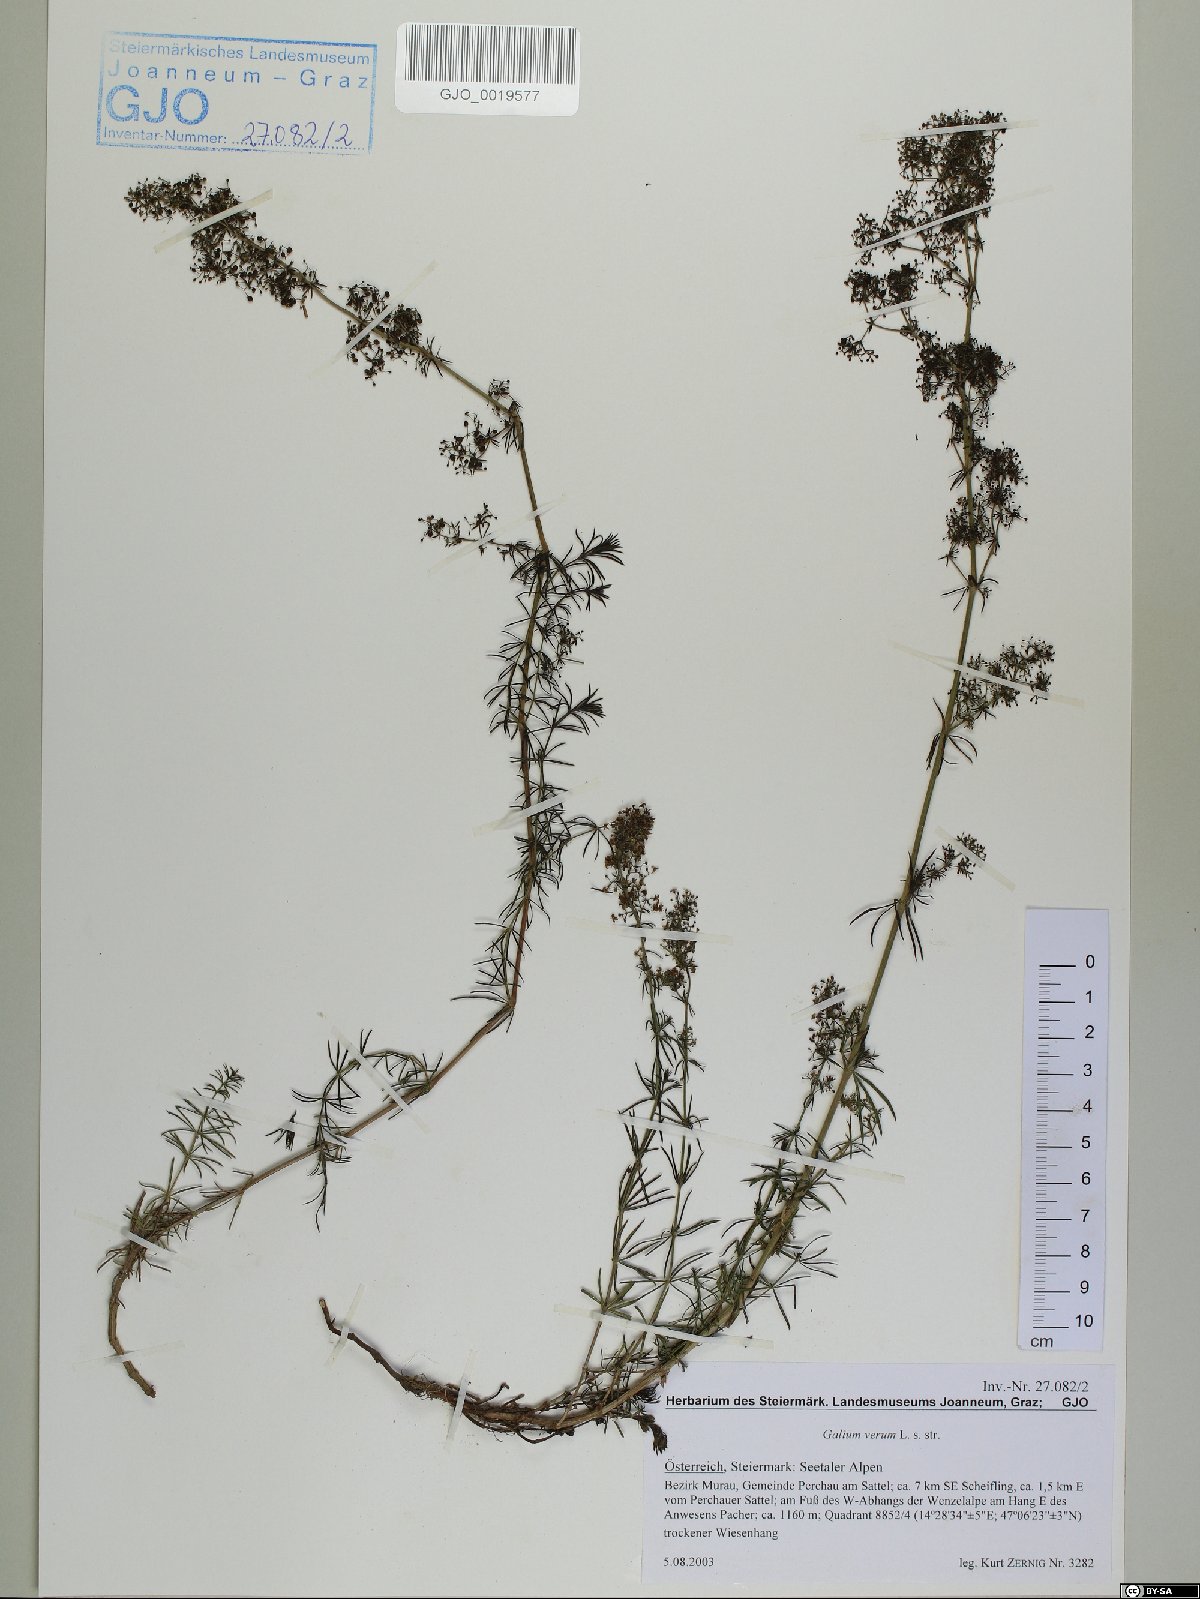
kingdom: Plantae
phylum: Tracheophyta
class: Magnoliopsida
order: Gentianales
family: Rubiaceae
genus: Galium
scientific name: Galium verum
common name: Lady's bedstraw
